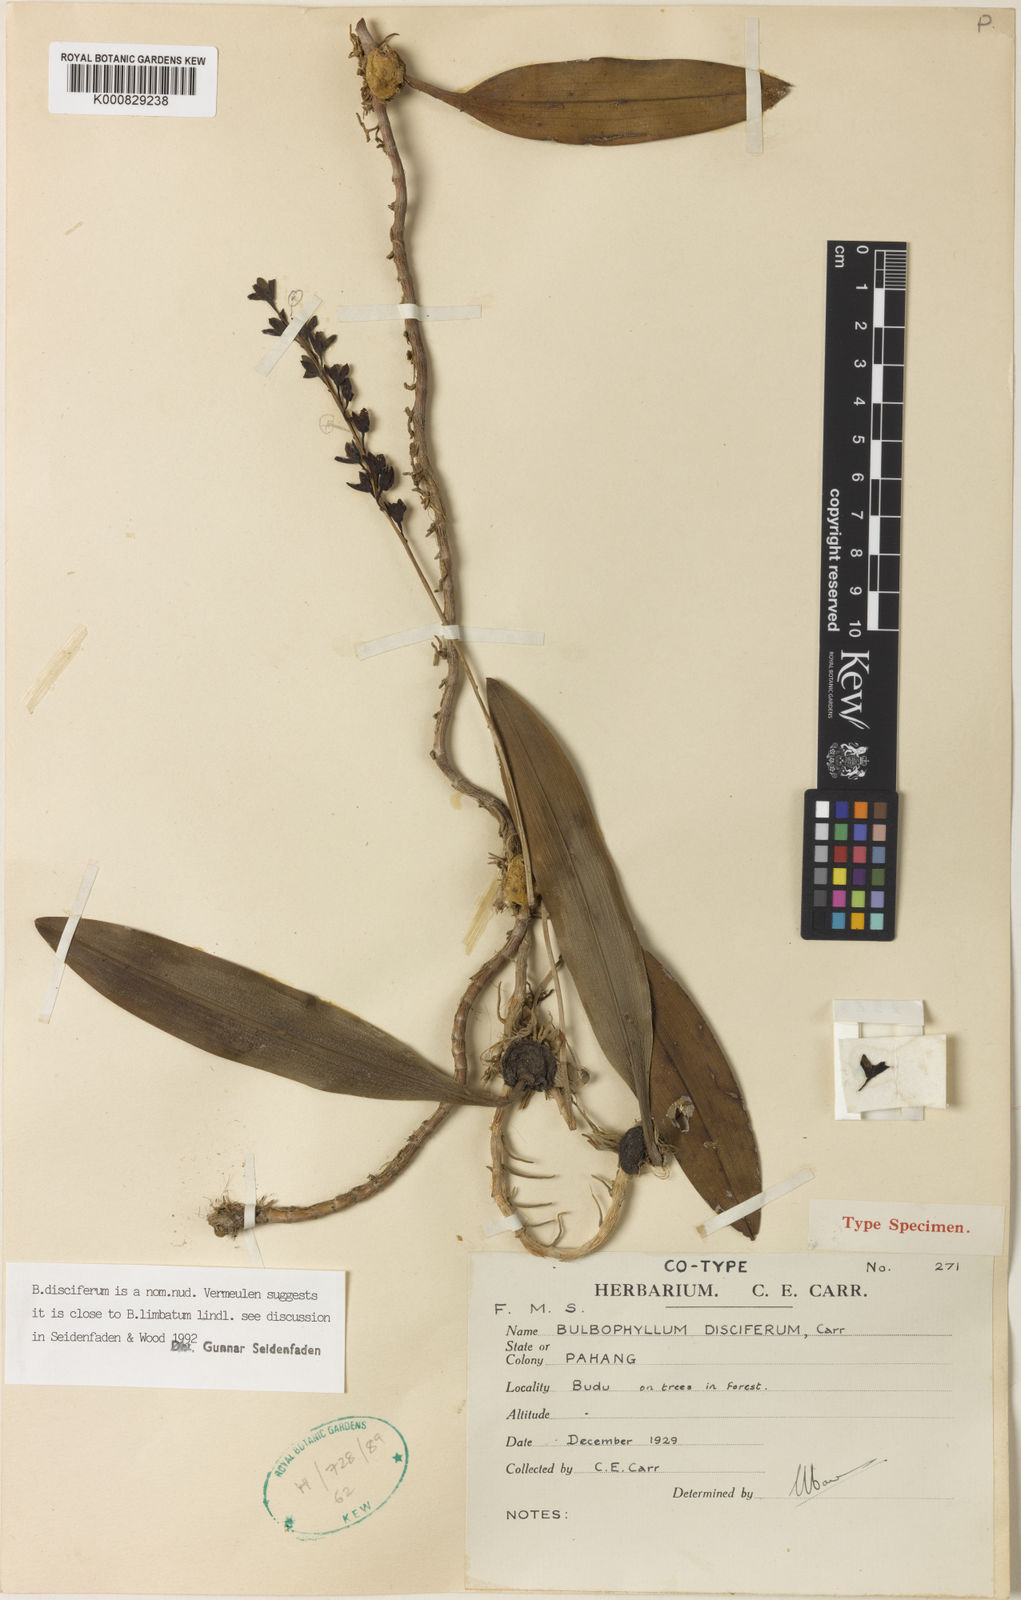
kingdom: Plantae
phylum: Tracheophyta
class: Liliopsida
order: Asparagales
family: Orchidaceae
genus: Bulbophyllum
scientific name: Bulbophyllum
